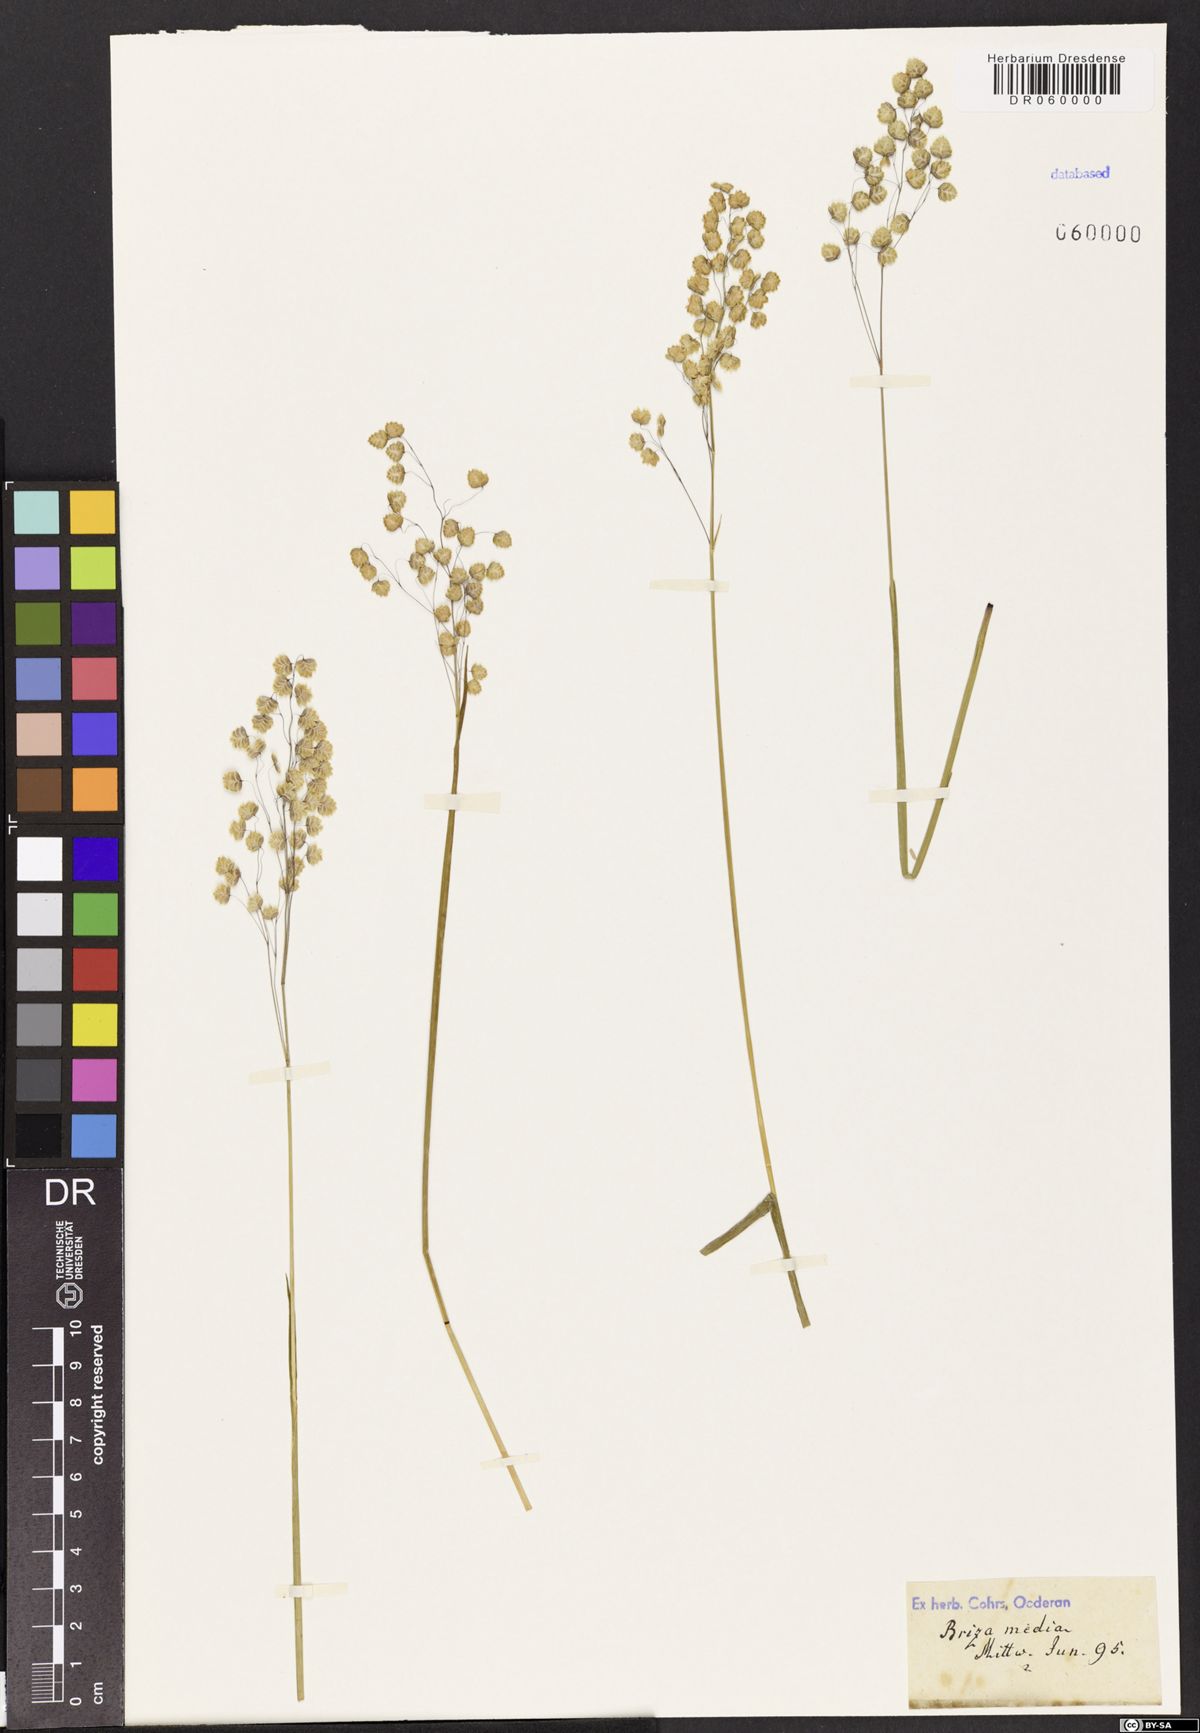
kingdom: Plantae
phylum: Tracheophyta
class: Liliopsida
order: Poales
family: Poaceae
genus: Briza
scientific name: Briza media
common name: Quaking grass
